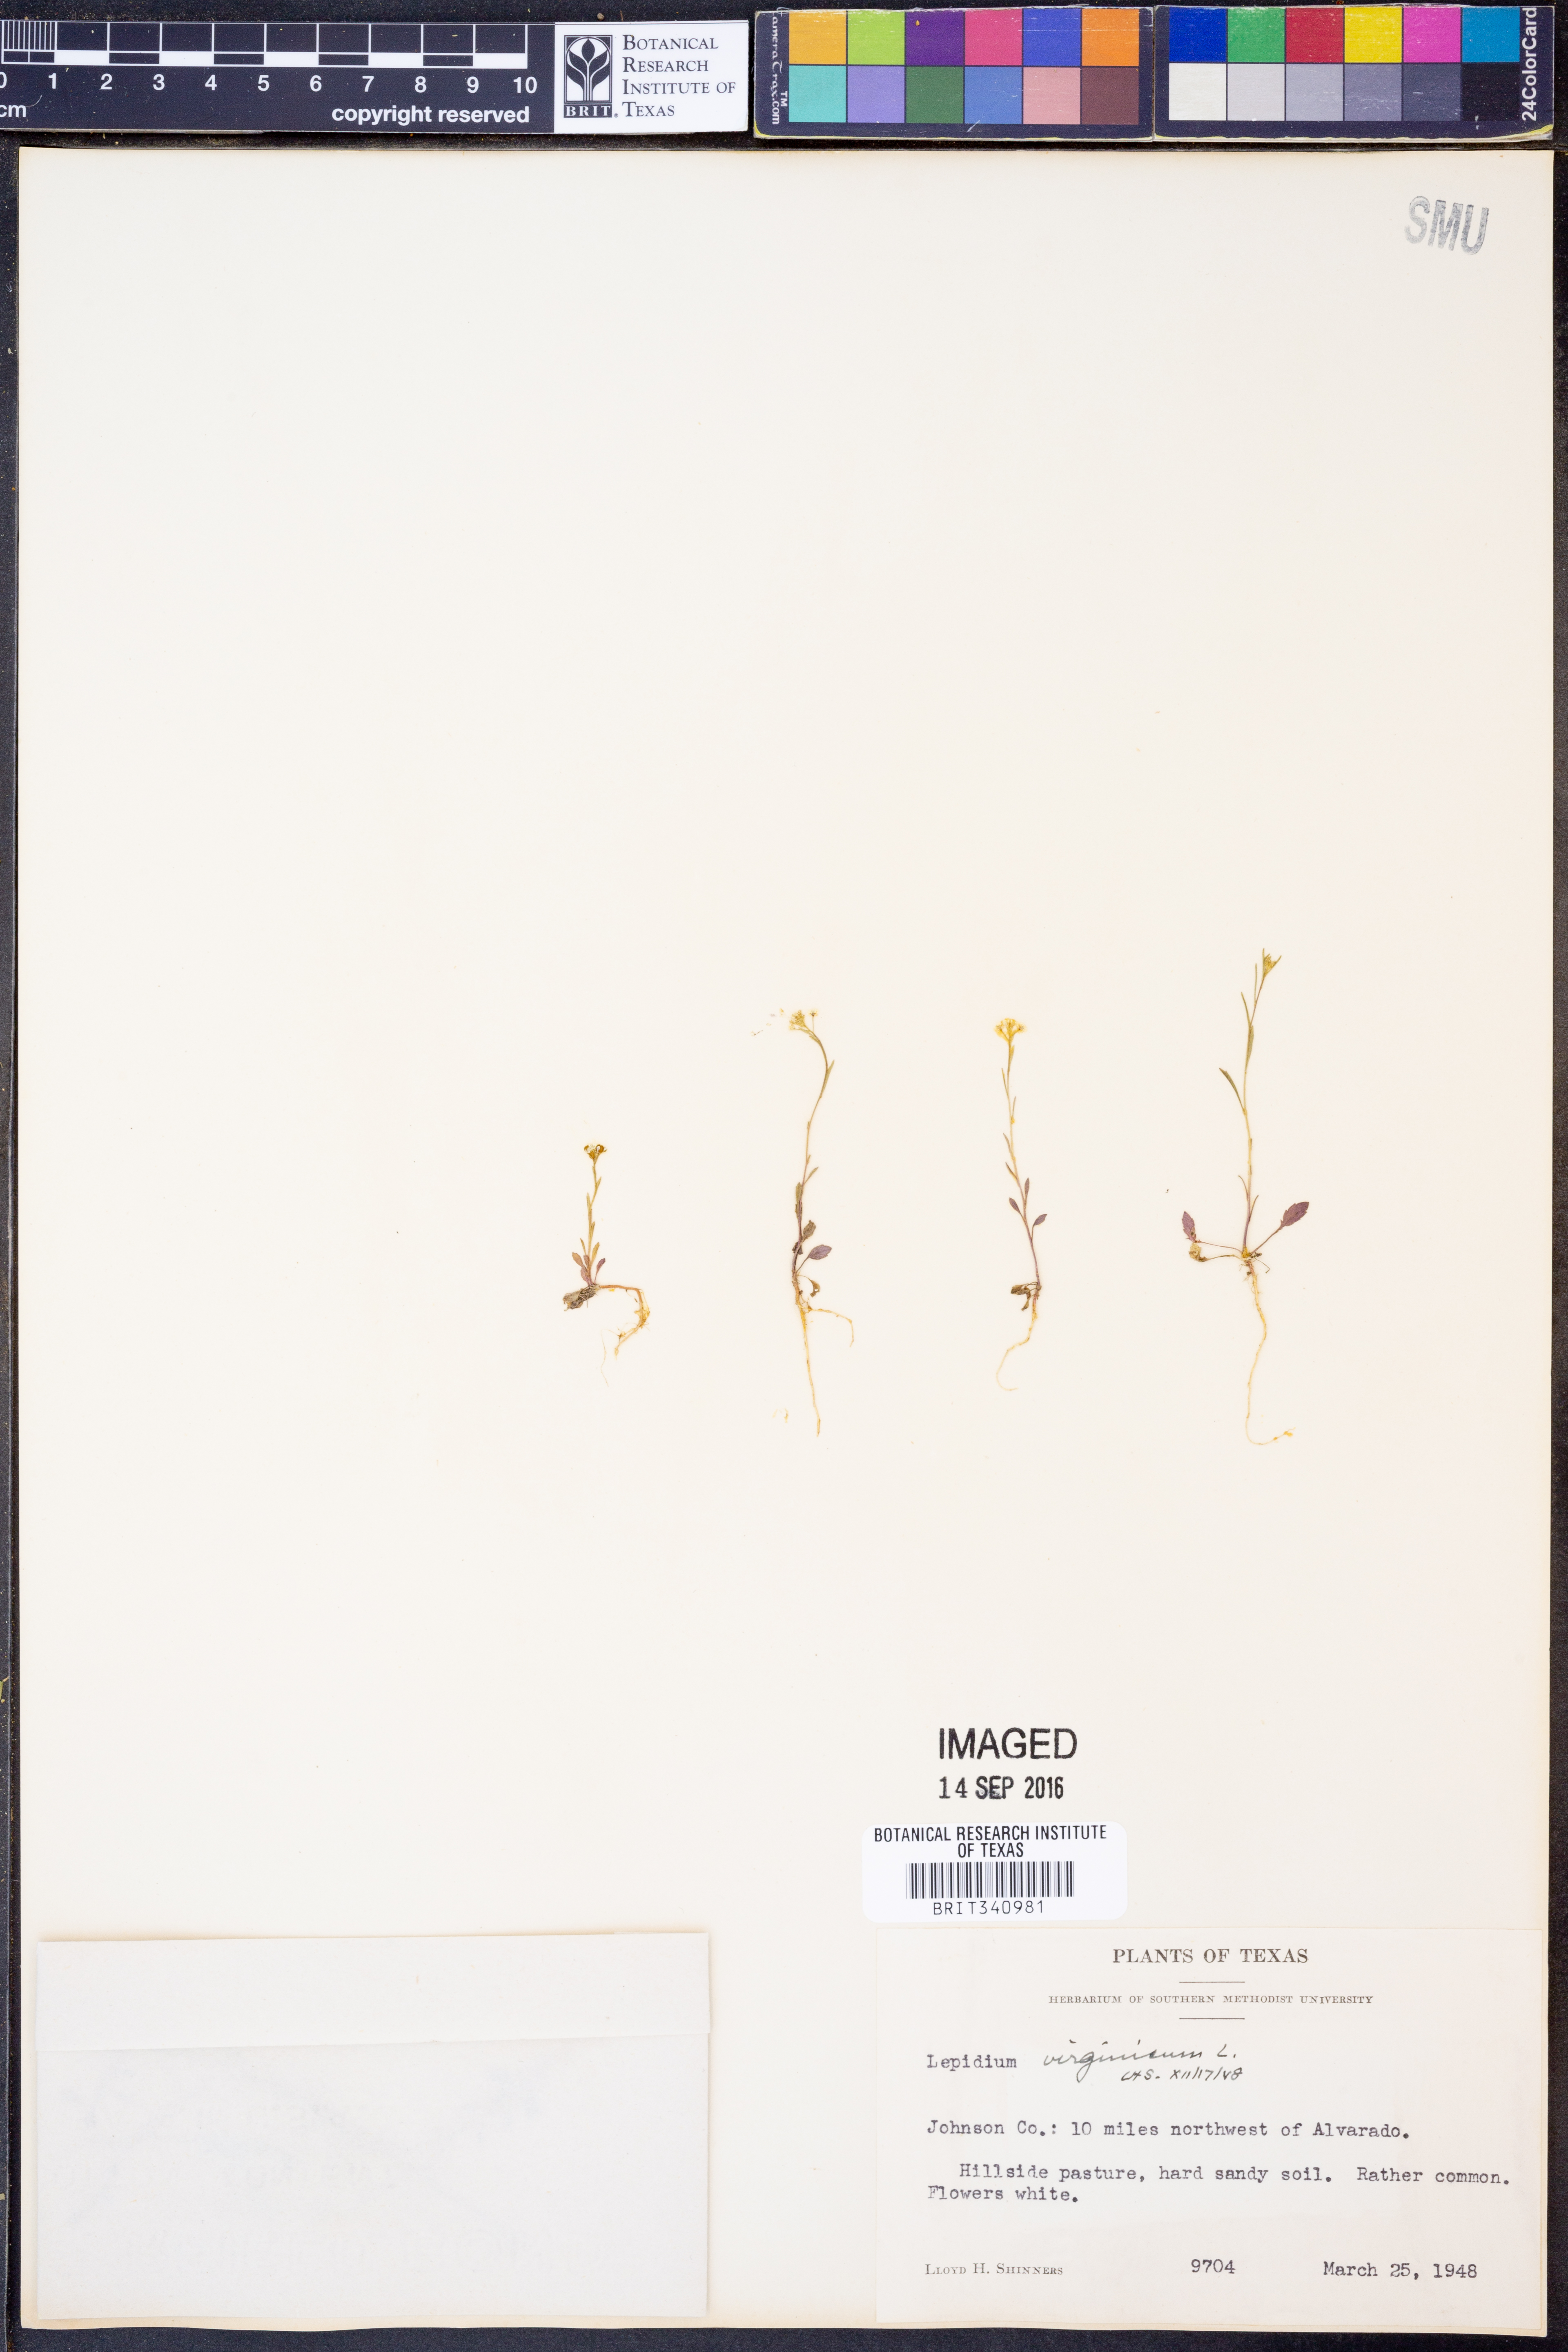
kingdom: Plantae
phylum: Tracheophyta
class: Magnoliopsida
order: Brassicales
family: Brassicaceae
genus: Lepidium
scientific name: Lepidium virginicum
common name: Least pepperwort
